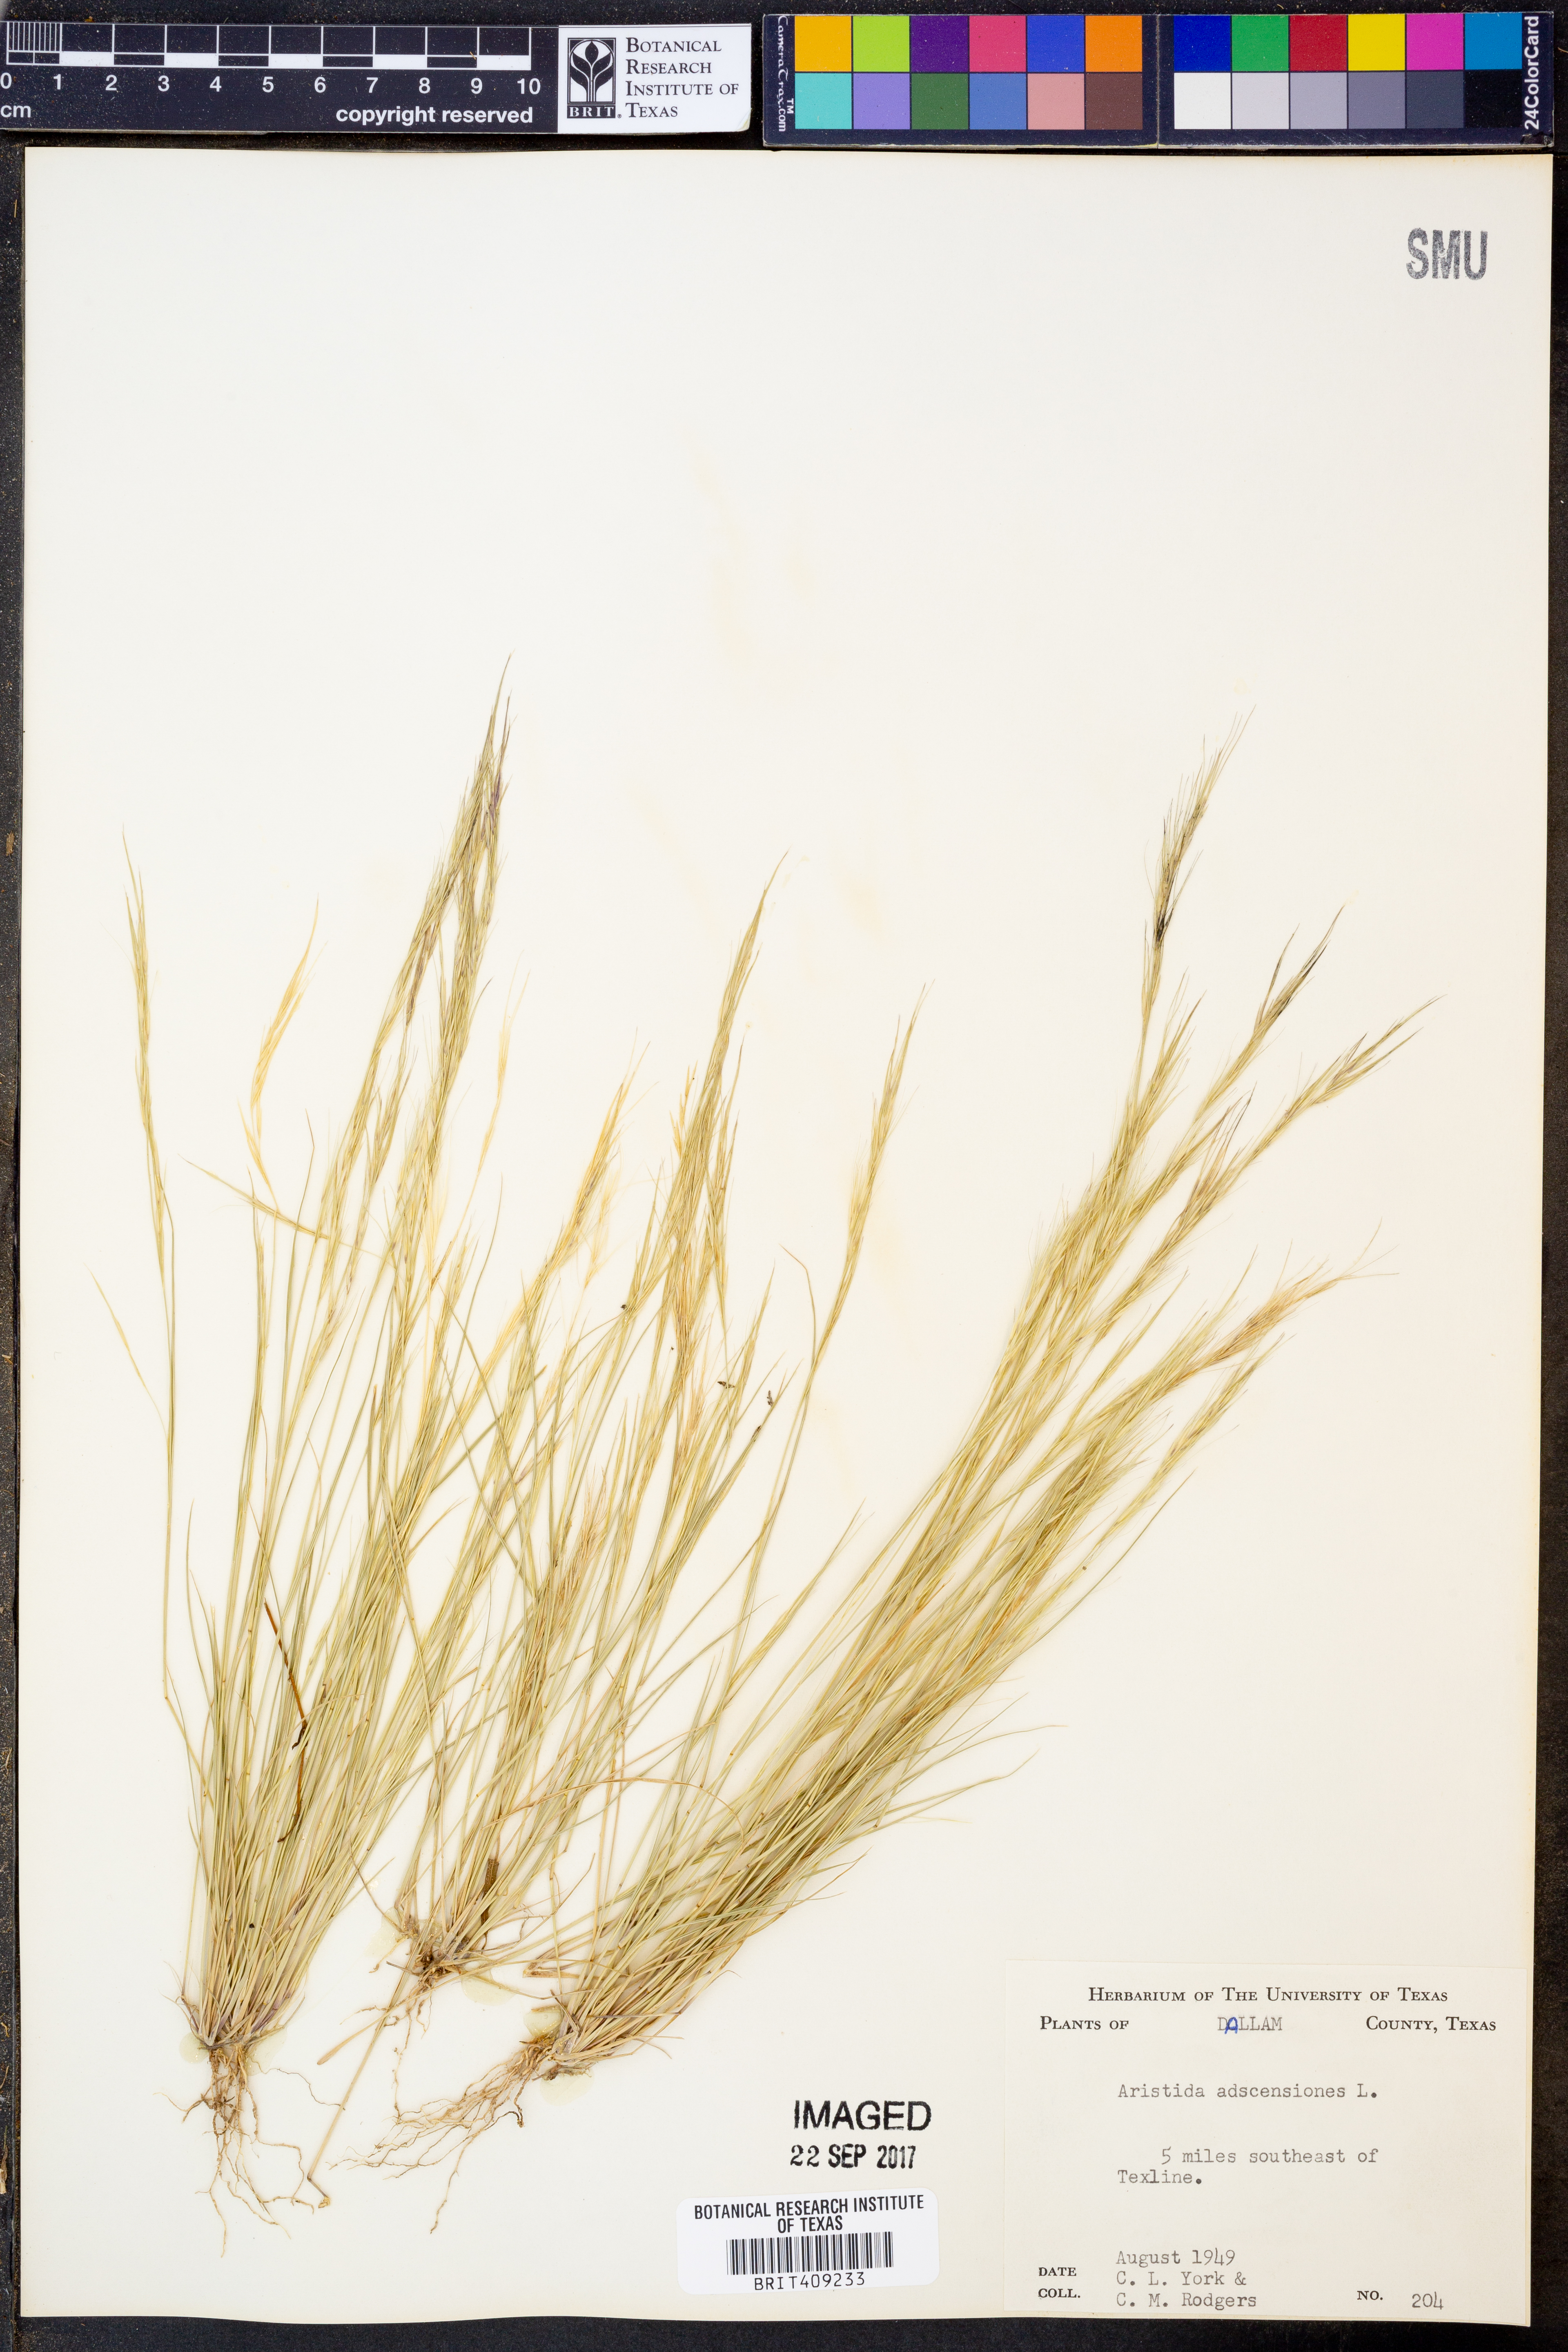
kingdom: Plantae
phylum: Tracheophyta
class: Liliopsida
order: Poales
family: Poaceae
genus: Aristida
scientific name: Aristida adscensionis
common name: Sixweeks threeawn
